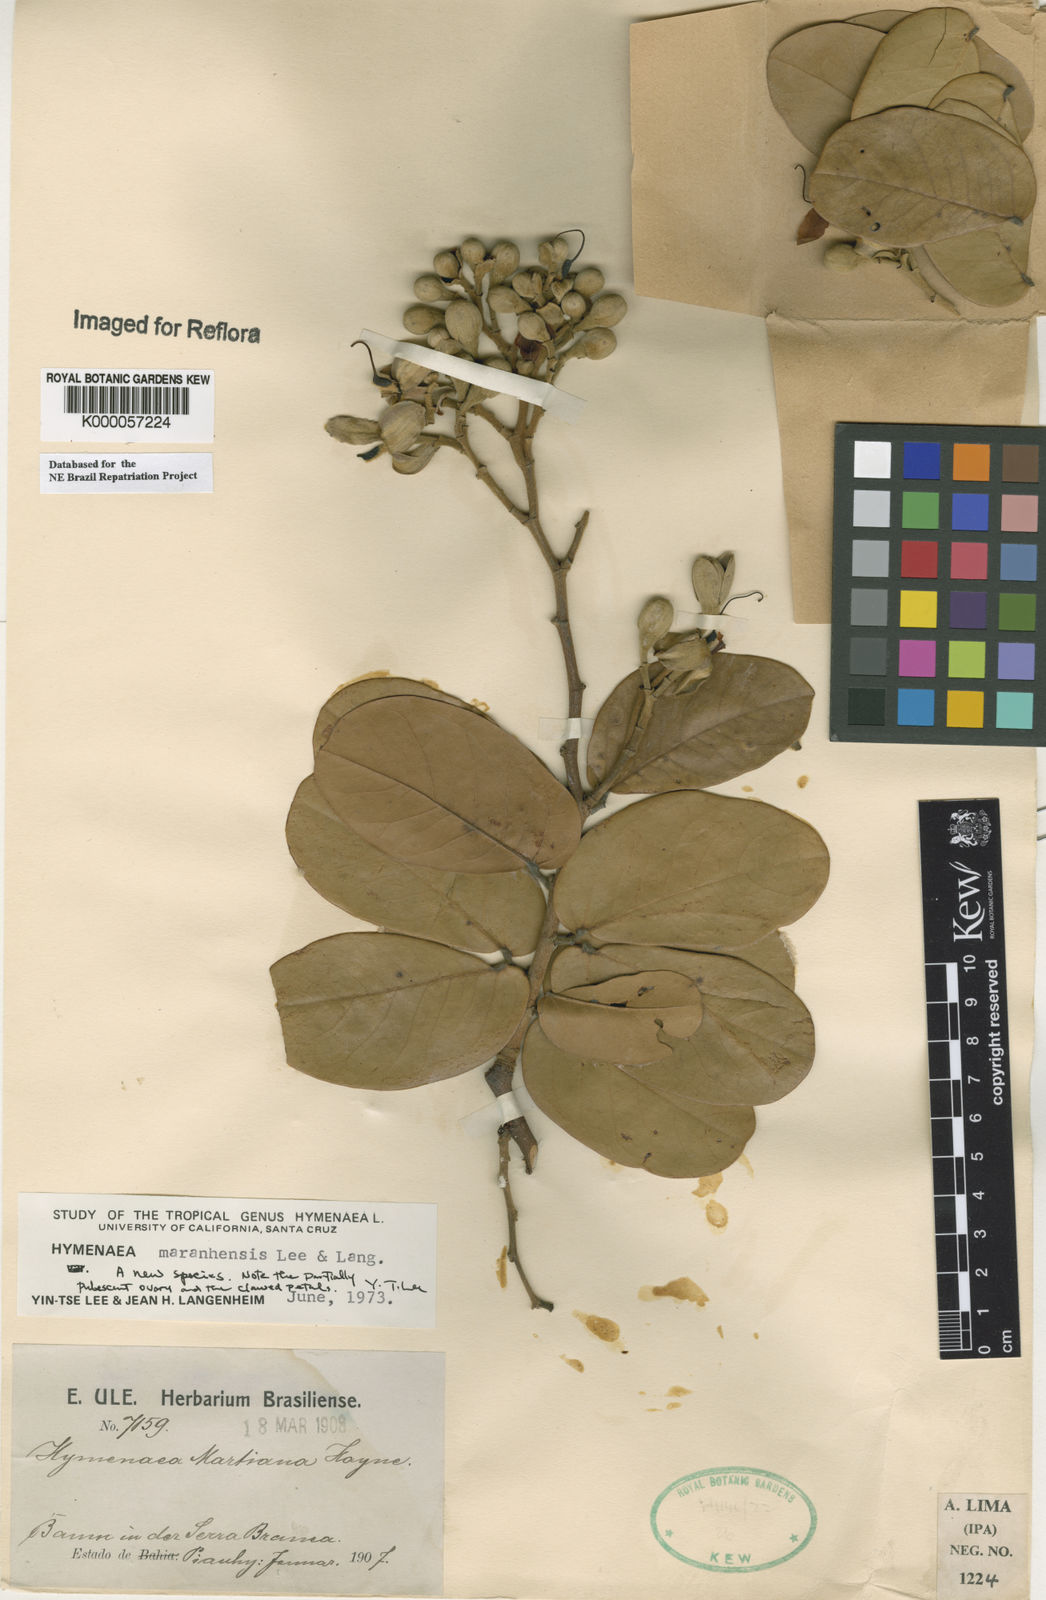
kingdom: Plantae
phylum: Tracheophyta
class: Magnoliopsida
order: Fabales
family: Fabaceae
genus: Hymenaea
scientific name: Hymenaea maranhensis
